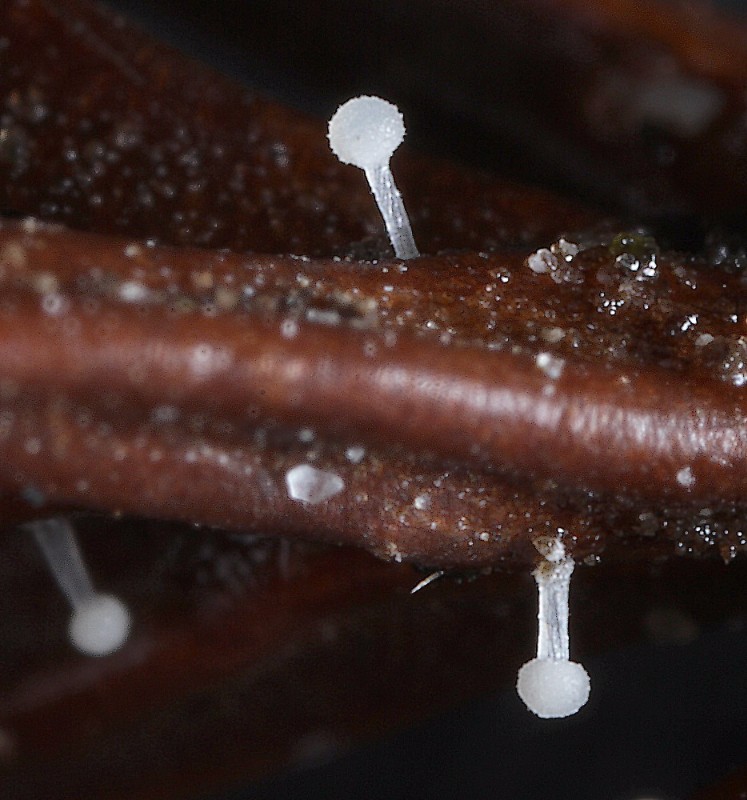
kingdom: Fungi
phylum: Basidiomycota
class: Agaricomycetes
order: Agaricales
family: Physalacriaceae
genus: Physalacria
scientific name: Physalacria cryptomeriae
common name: japangran-boldkølle
